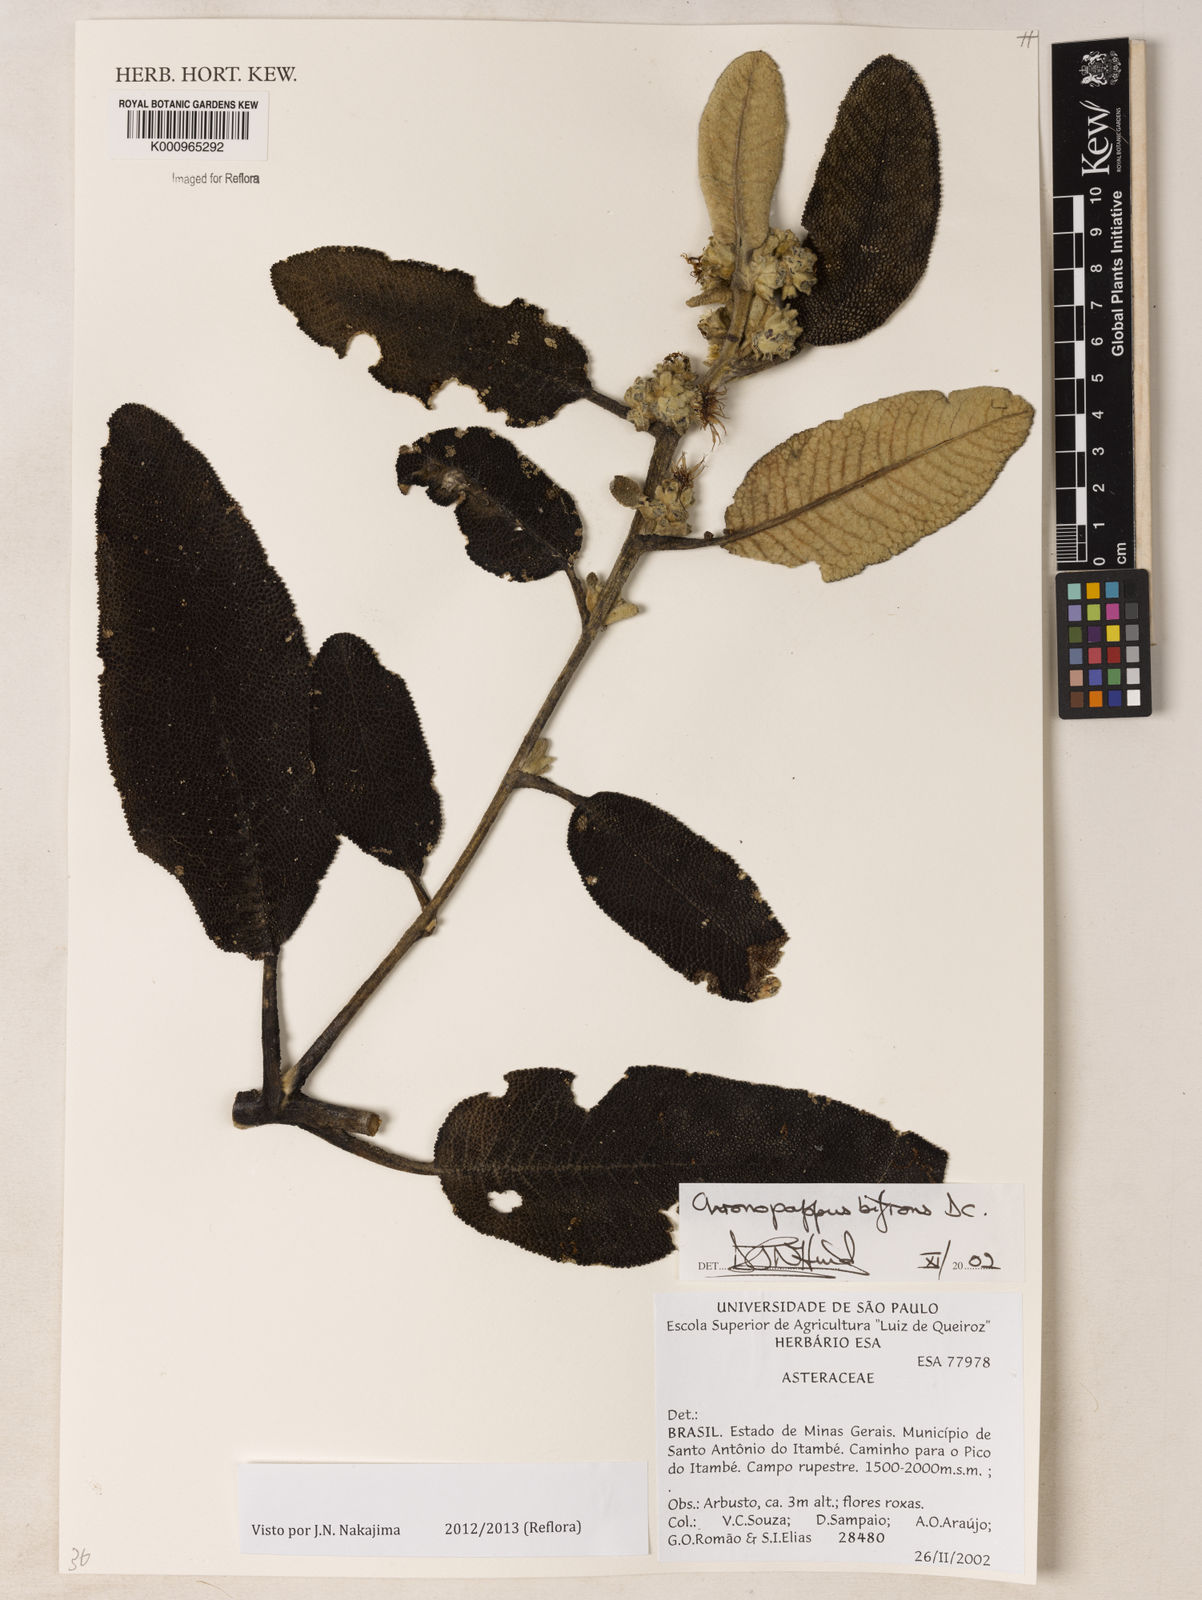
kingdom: Plantae
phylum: Tracheophyta
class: Magnoliopsida
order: Asterales
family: Asteraceae
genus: Chronopappus
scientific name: Chronopappus bifrons
